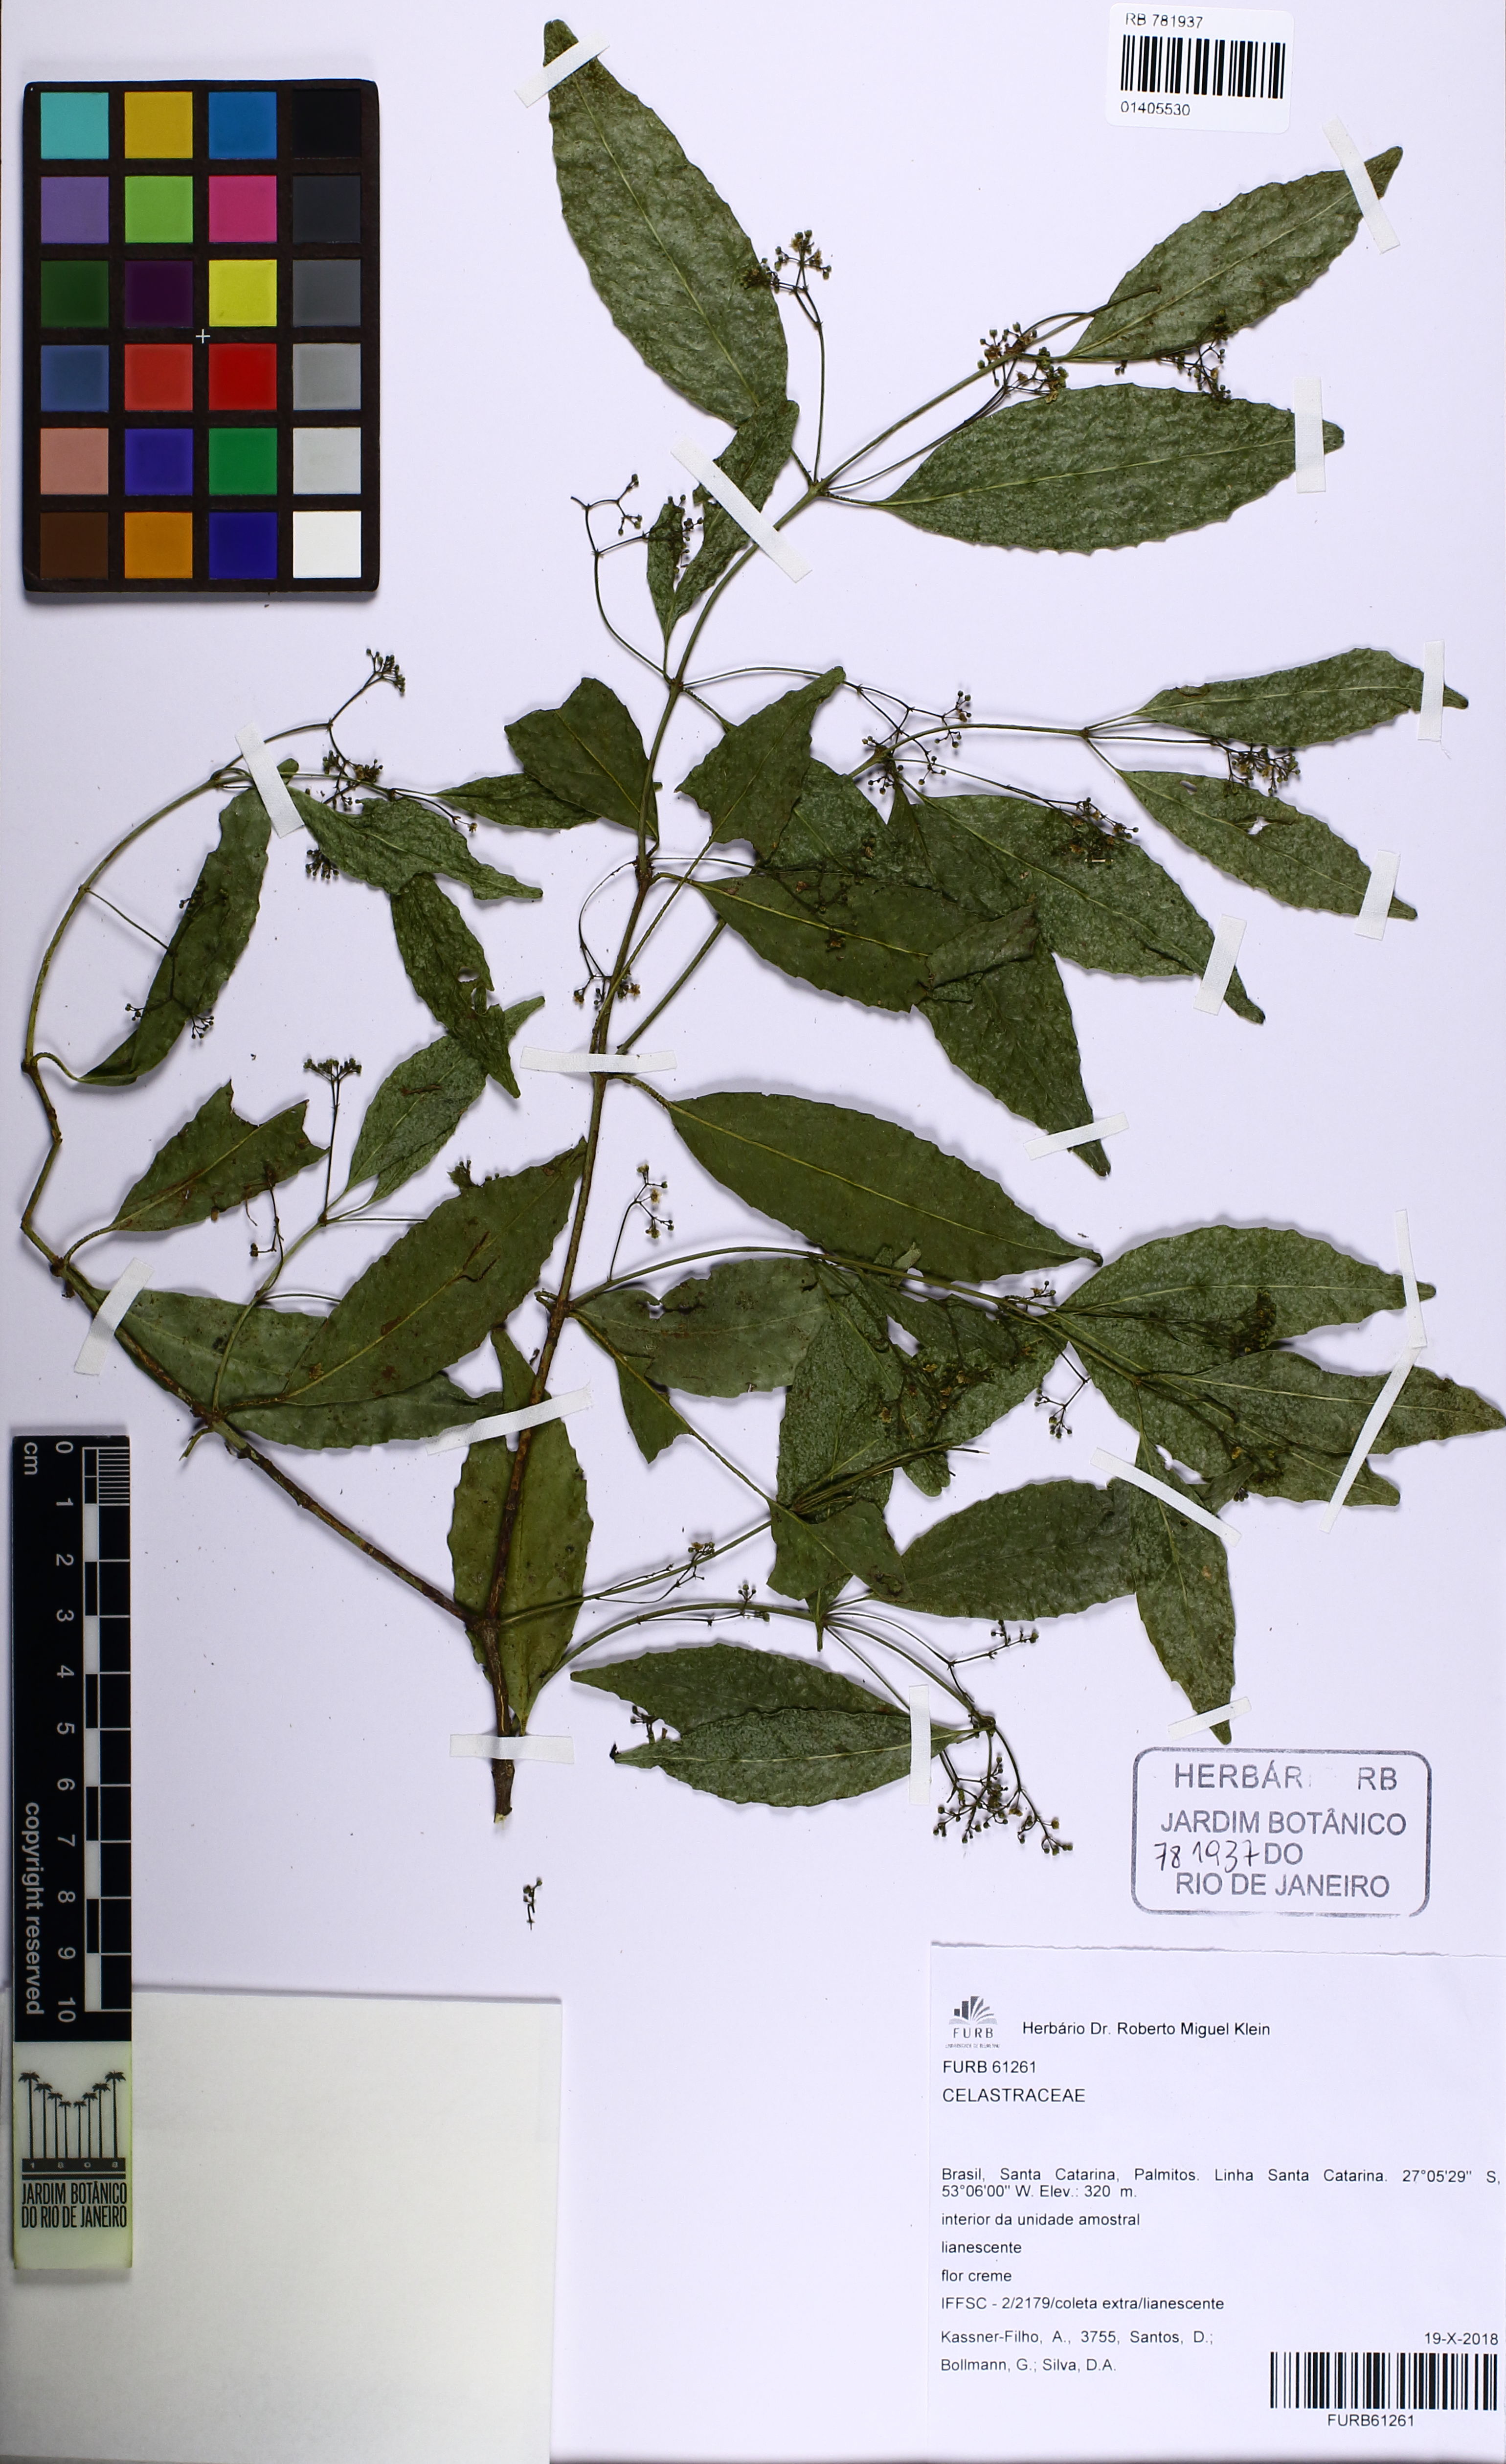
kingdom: Plantae
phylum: Tracheophyta
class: Magnoliopsida
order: Celastrales
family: Celastraceae
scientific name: Celastraceae
